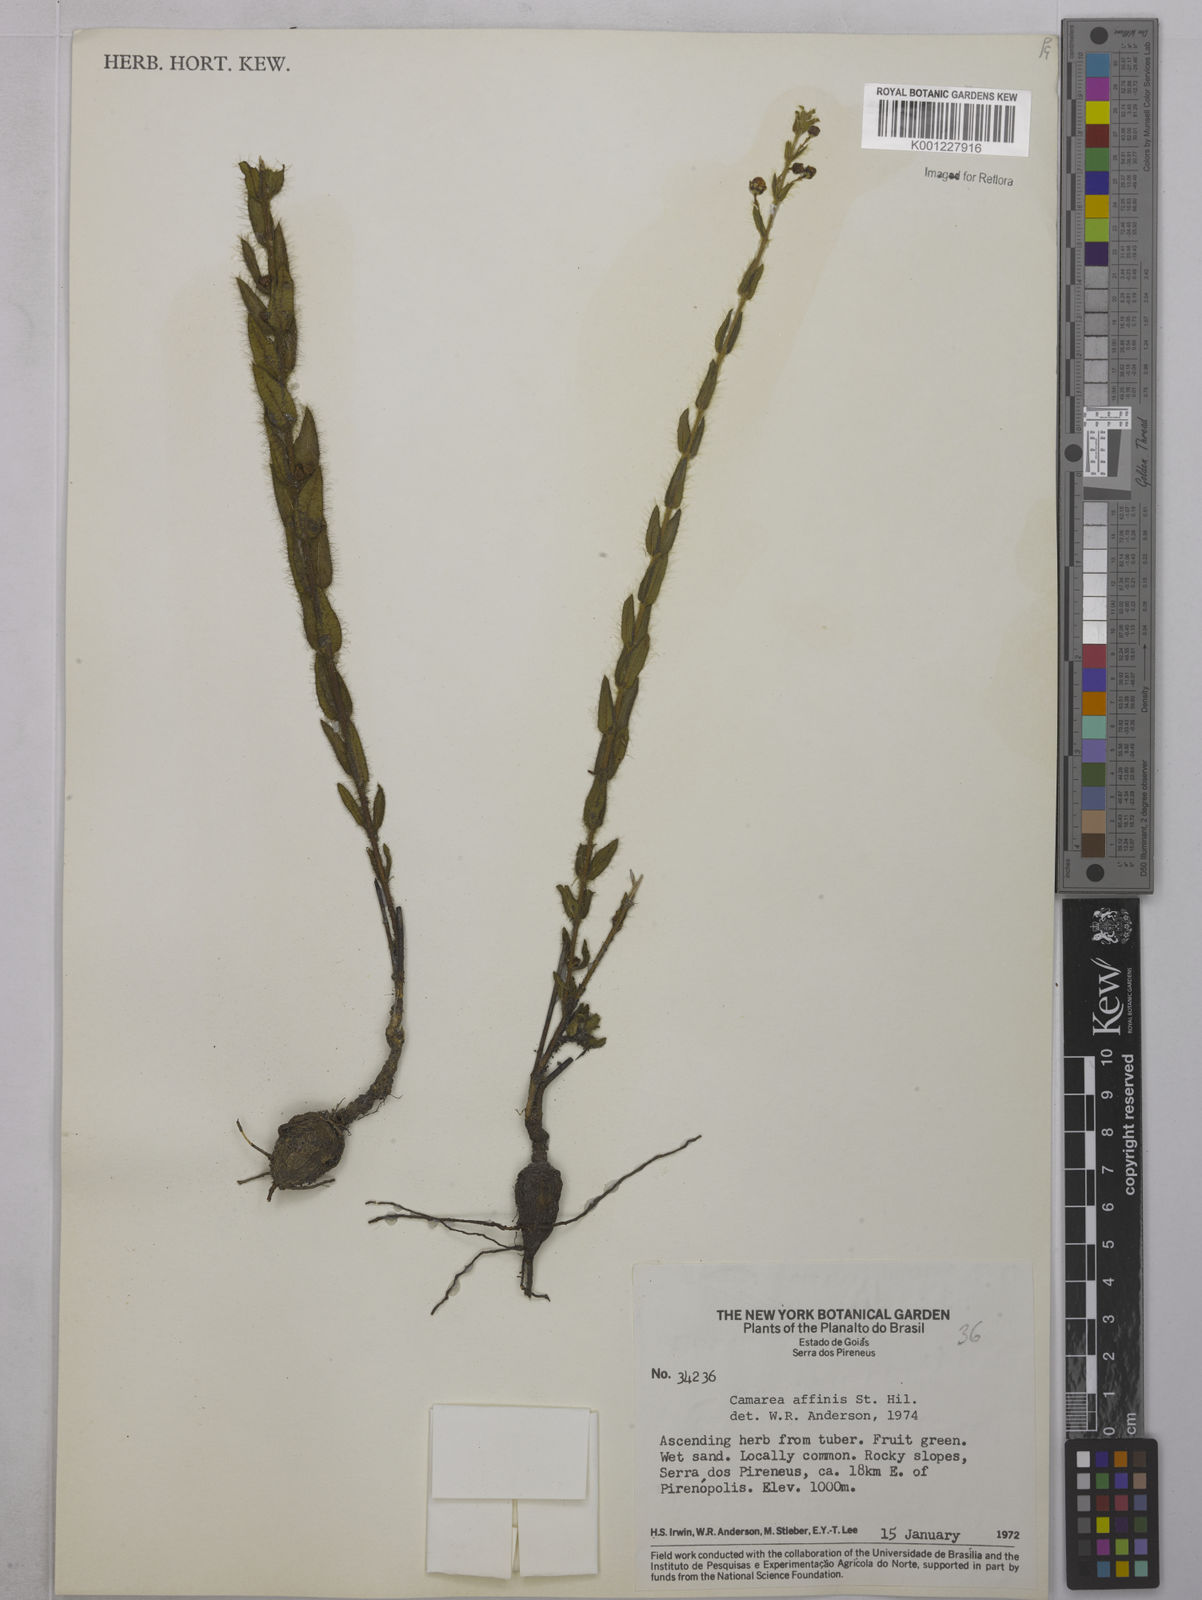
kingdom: Plantae
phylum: Tracheophyta
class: Magnoliopsida
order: Malpighiales
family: Malpighiaceae
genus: Camarea
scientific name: Camarea affinis
